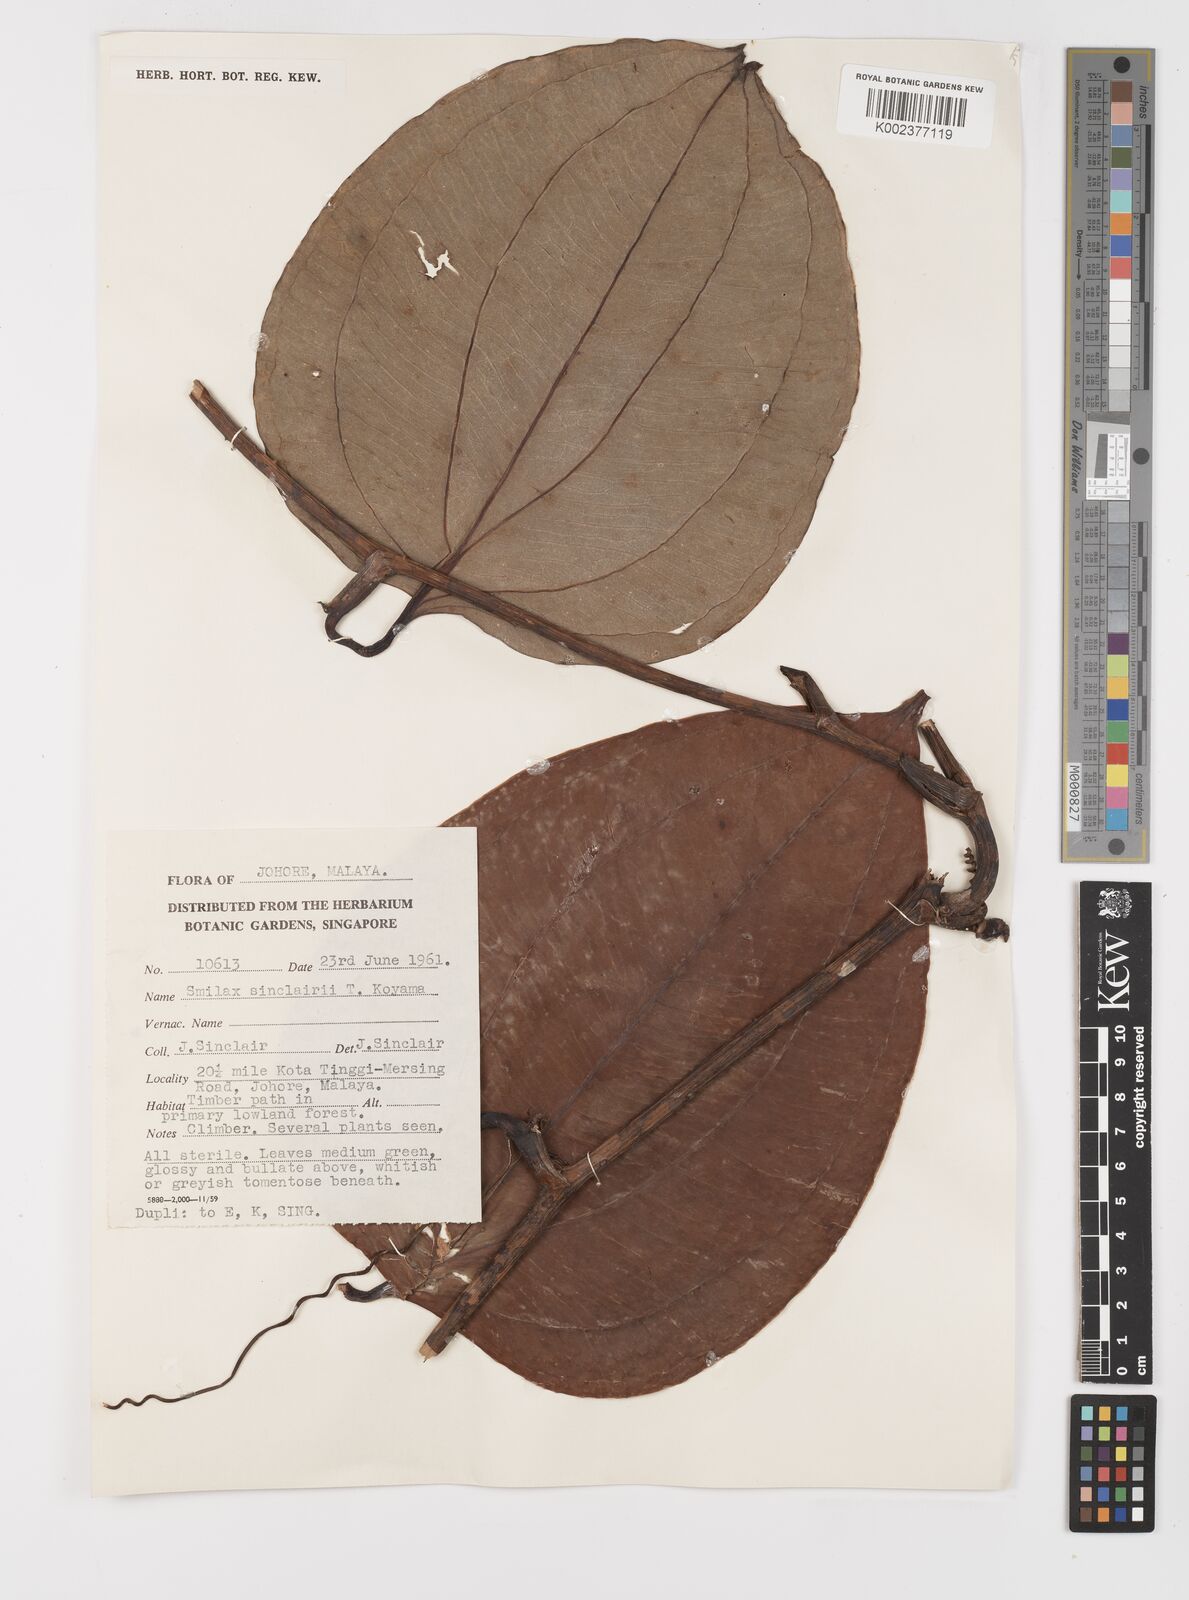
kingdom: Plantae
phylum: Tracheophyta
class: Liliopsida
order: Liliales
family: Smilacaceae
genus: Smilax
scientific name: Smilax sinclairii
